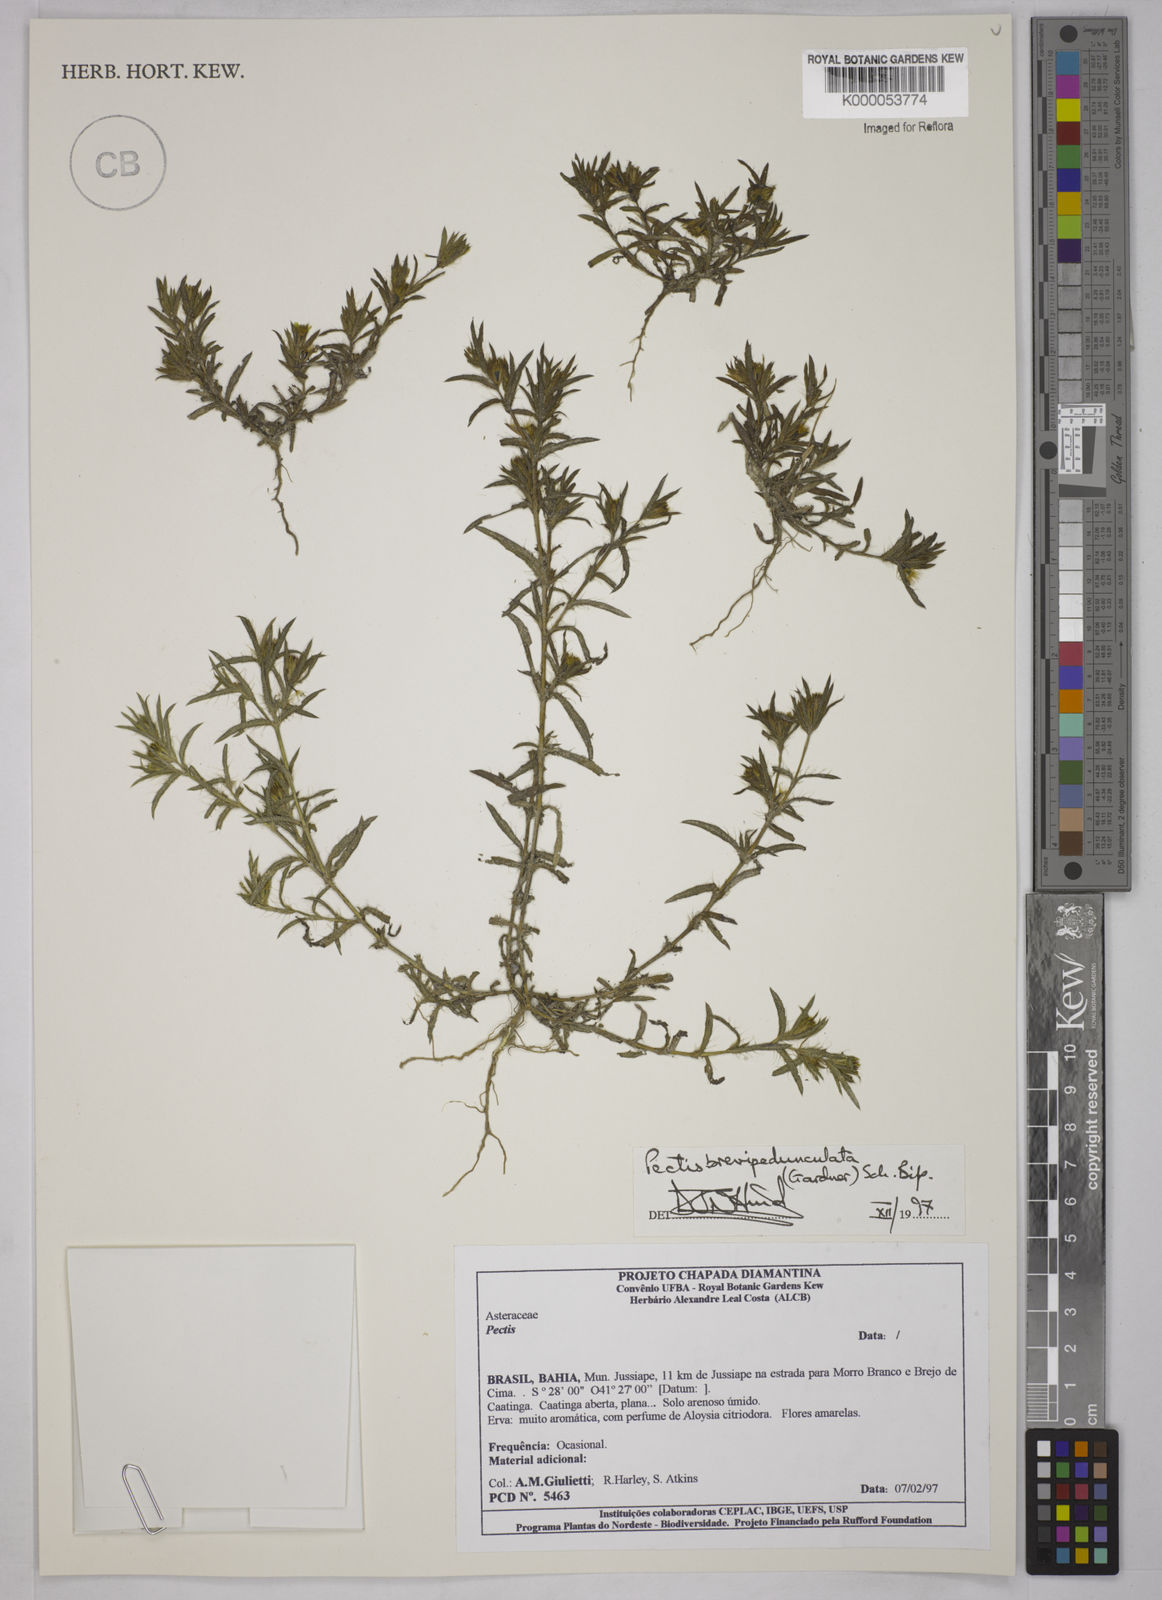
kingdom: Plantae
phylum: Tracheophyta
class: Magnoliopsida
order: Asterales
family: Asteraceae
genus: Pectis
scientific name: Pectis brevipedunculata
